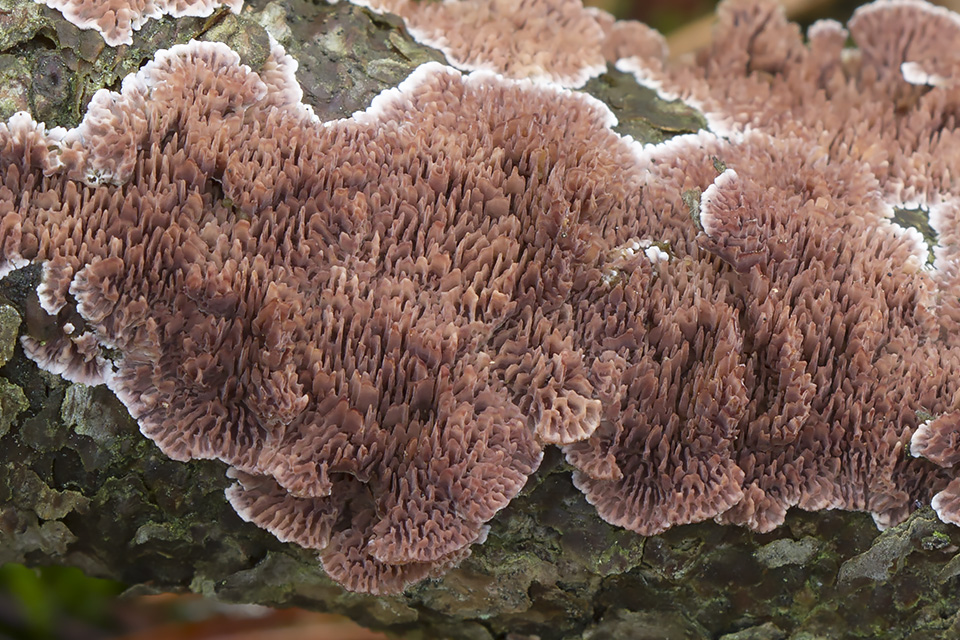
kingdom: Fungi
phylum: Basidiomycota
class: Agaricomycetes
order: Hymenochaetales
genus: Trichaptum
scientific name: Trichaptum fuscoviolaceum
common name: tandet violporesvamp
